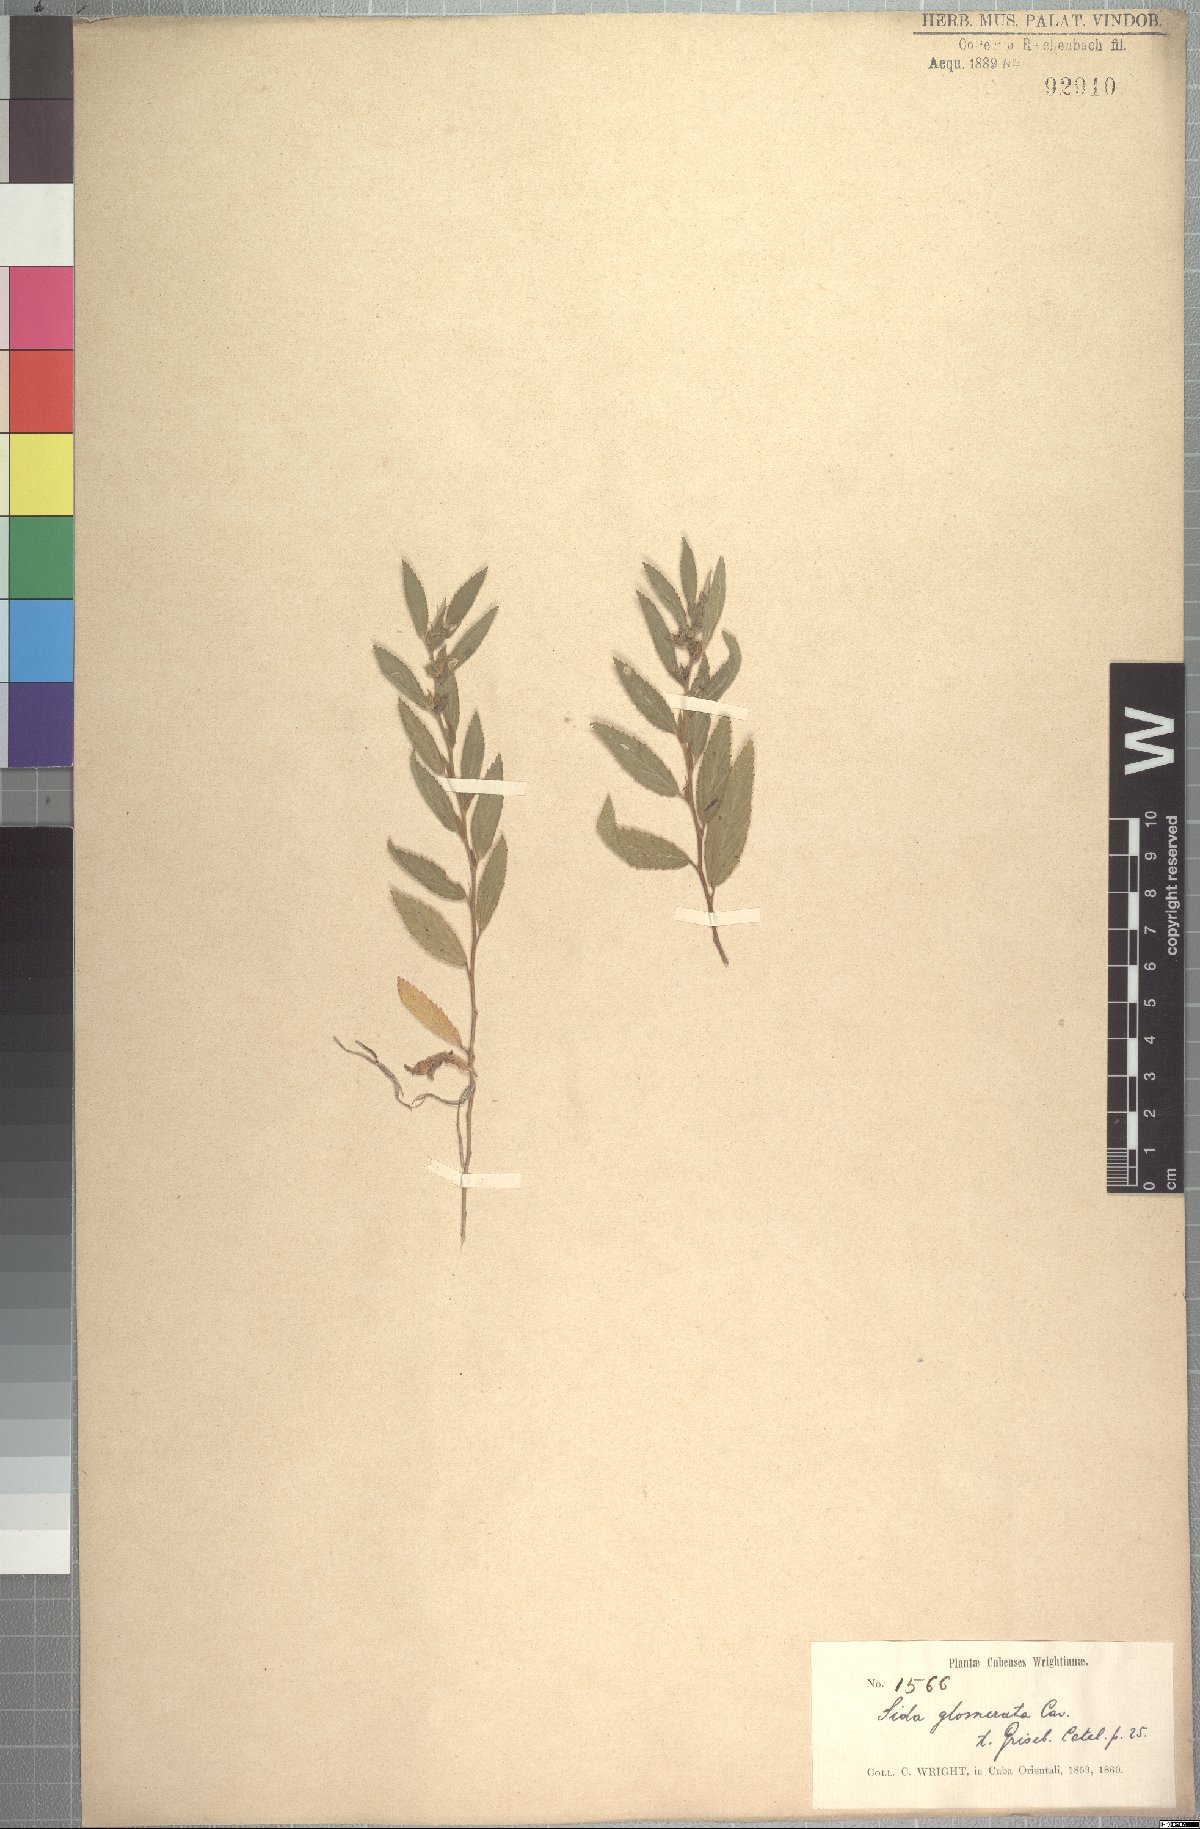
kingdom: Plantae
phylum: Tracheophyta
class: Magnoliopsida
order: Malvales
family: Malvaceae
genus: Sida
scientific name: Sida glomerata
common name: Clustered fanpetals
